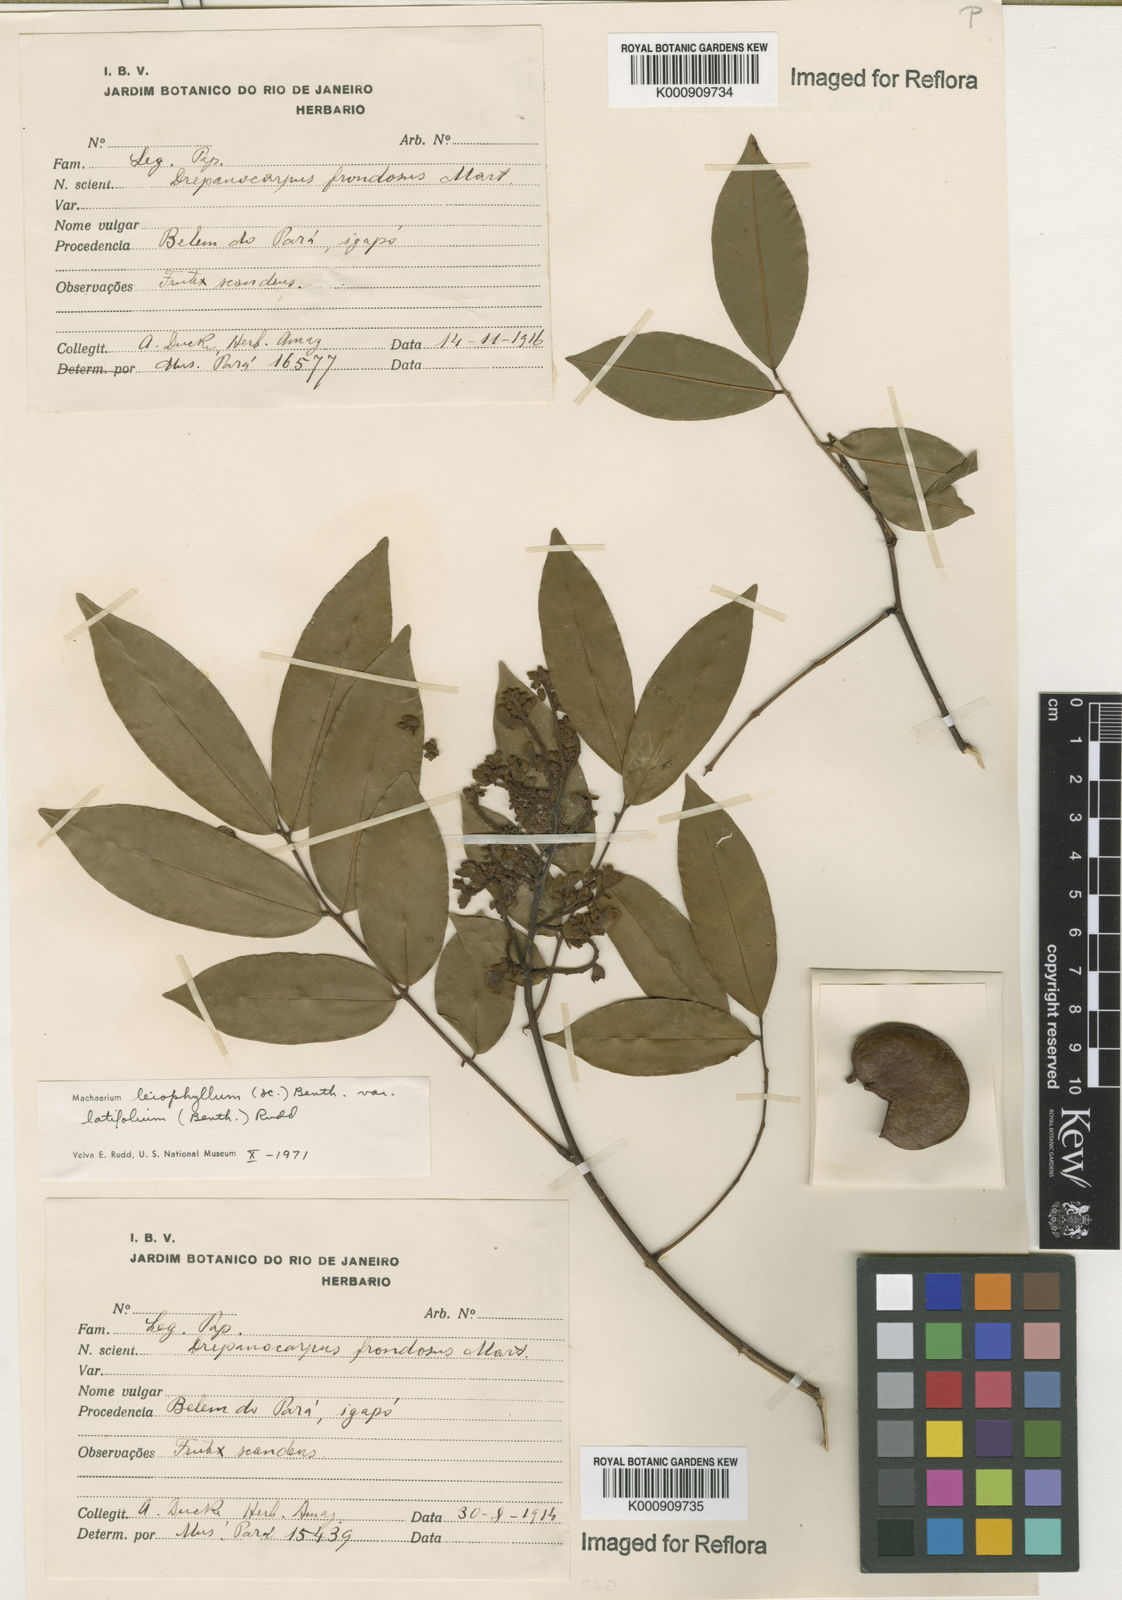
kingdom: Plantae
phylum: Tracheophyta
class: Magnoliopsida
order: Fabales
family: Fabaceae
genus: Machaerium
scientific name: Machaerium leiophyllum
